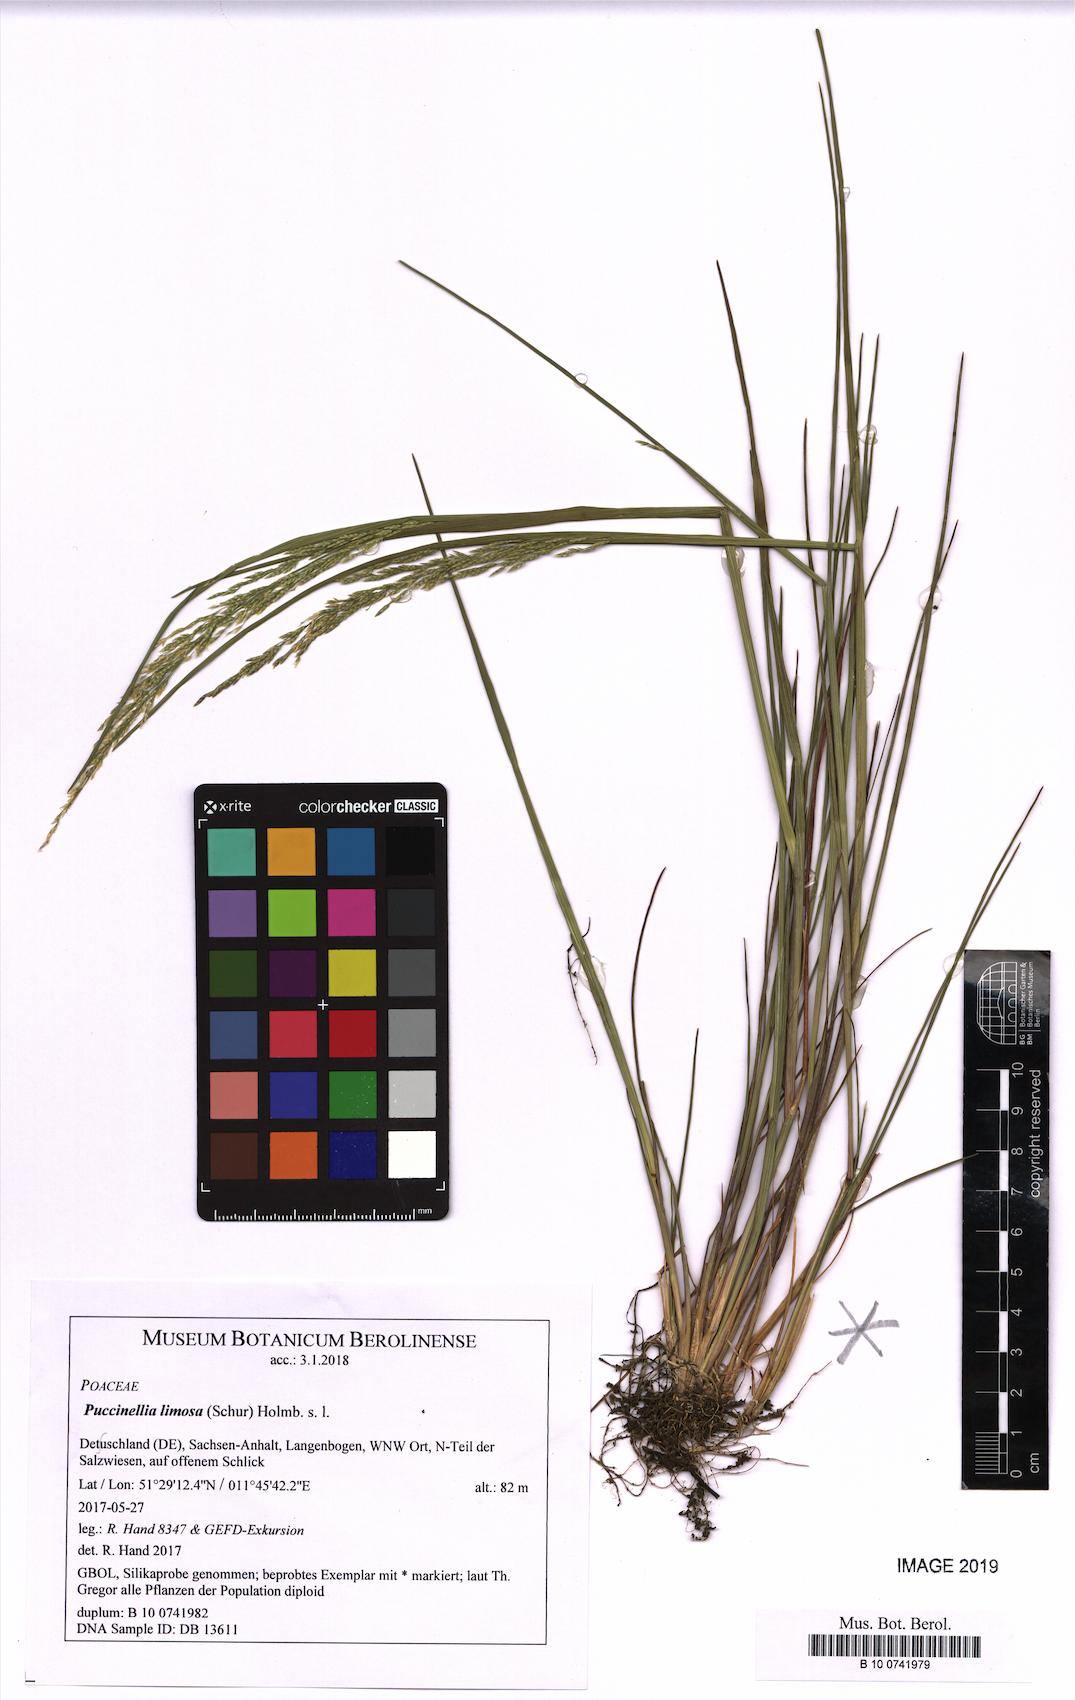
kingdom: Plantae
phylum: Tracheophyta
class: Liliopsida
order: Poales
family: Poaceae
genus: Puccinellia
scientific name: Puccinellia distans
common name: Weeping alkaligrass
